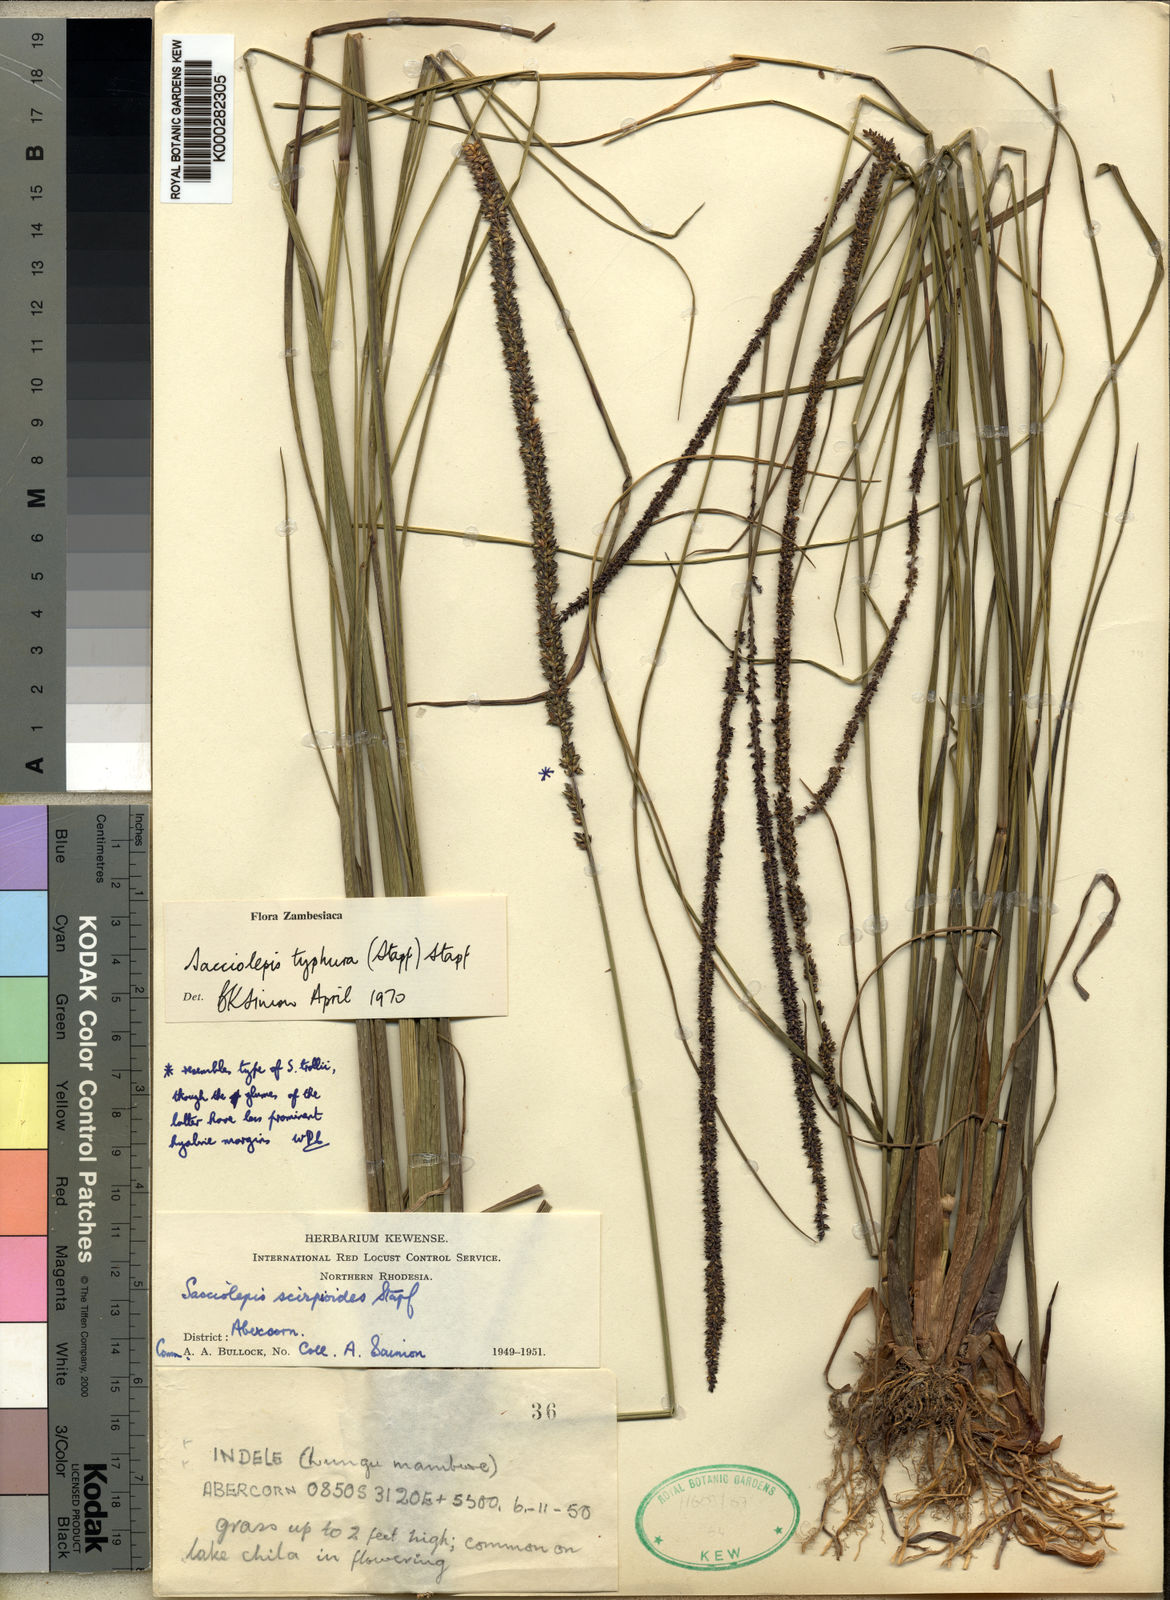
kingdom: Plantae
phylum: Tracheophyta
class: Liliopsida
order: Poales
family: Poaceae
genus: Sacciolepis
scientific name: Sacciolepis typhura
